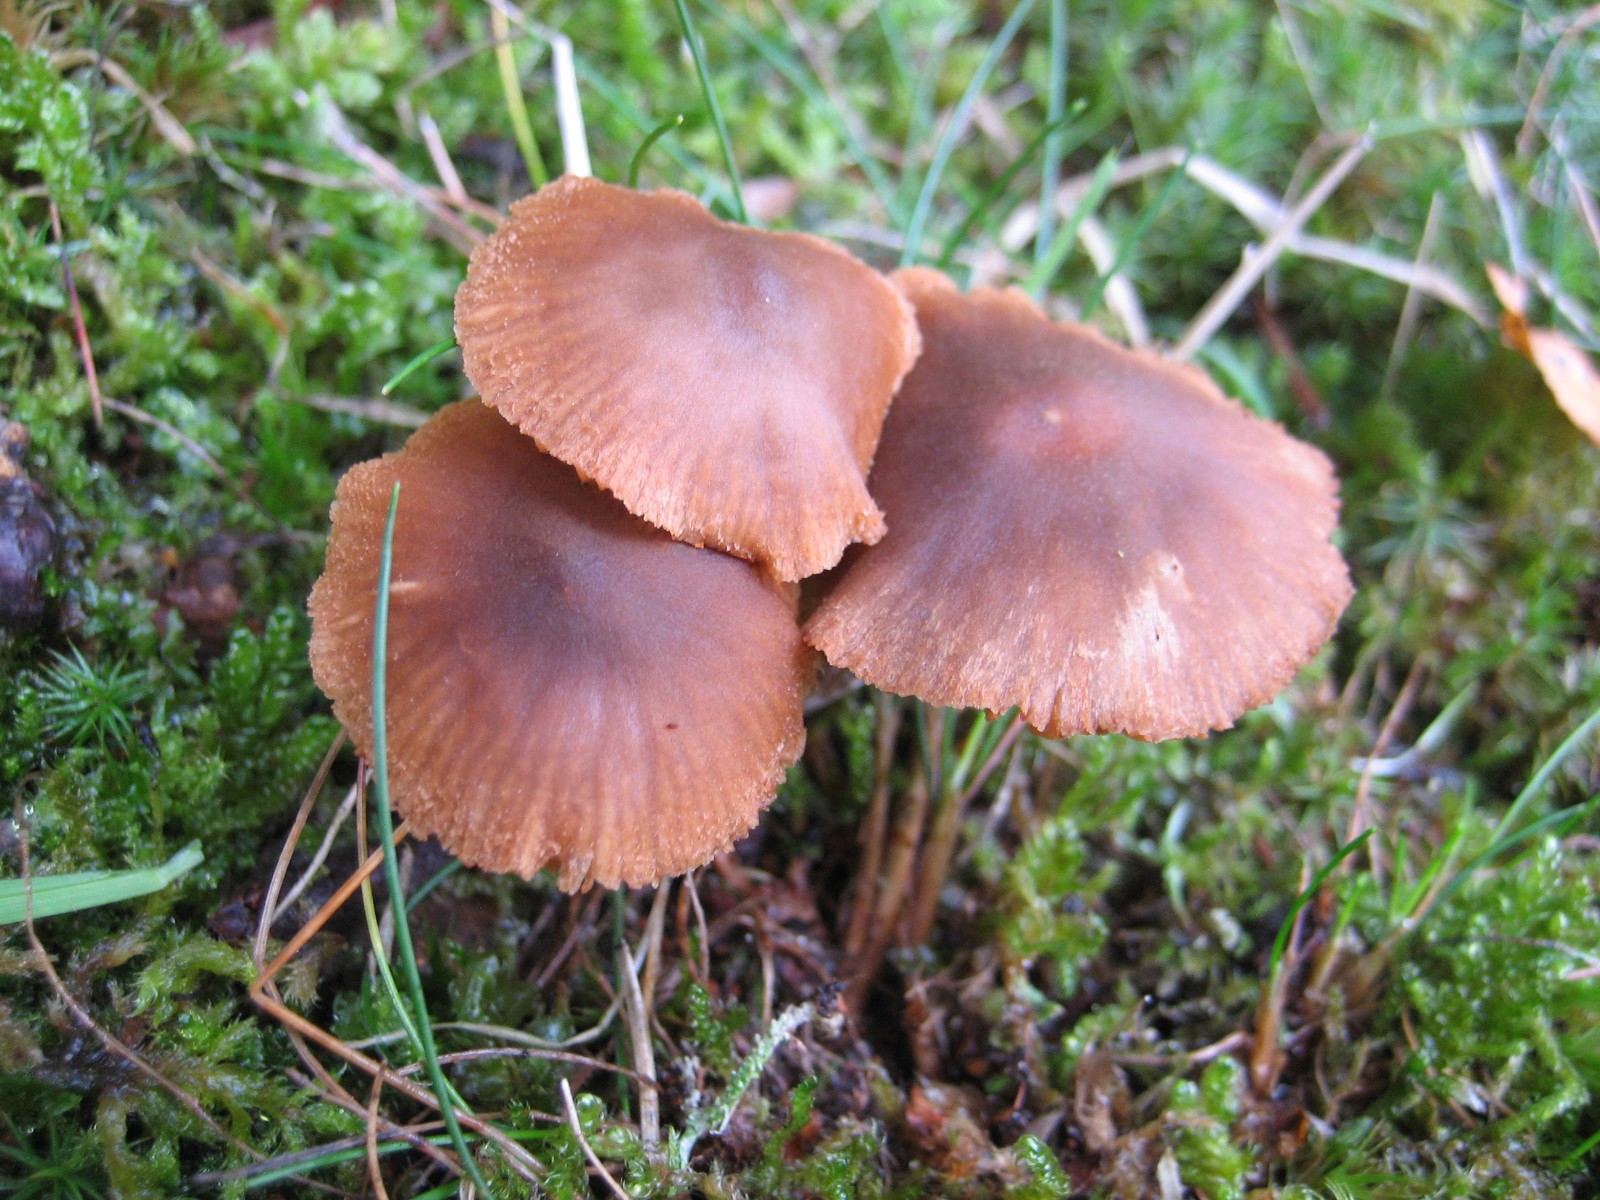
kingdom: Fungi
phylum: Basidiomycota
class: Agaricomycetes
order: Agaricales
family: Cortinariaceae
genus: Cortinarius
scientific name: Cortinarius
